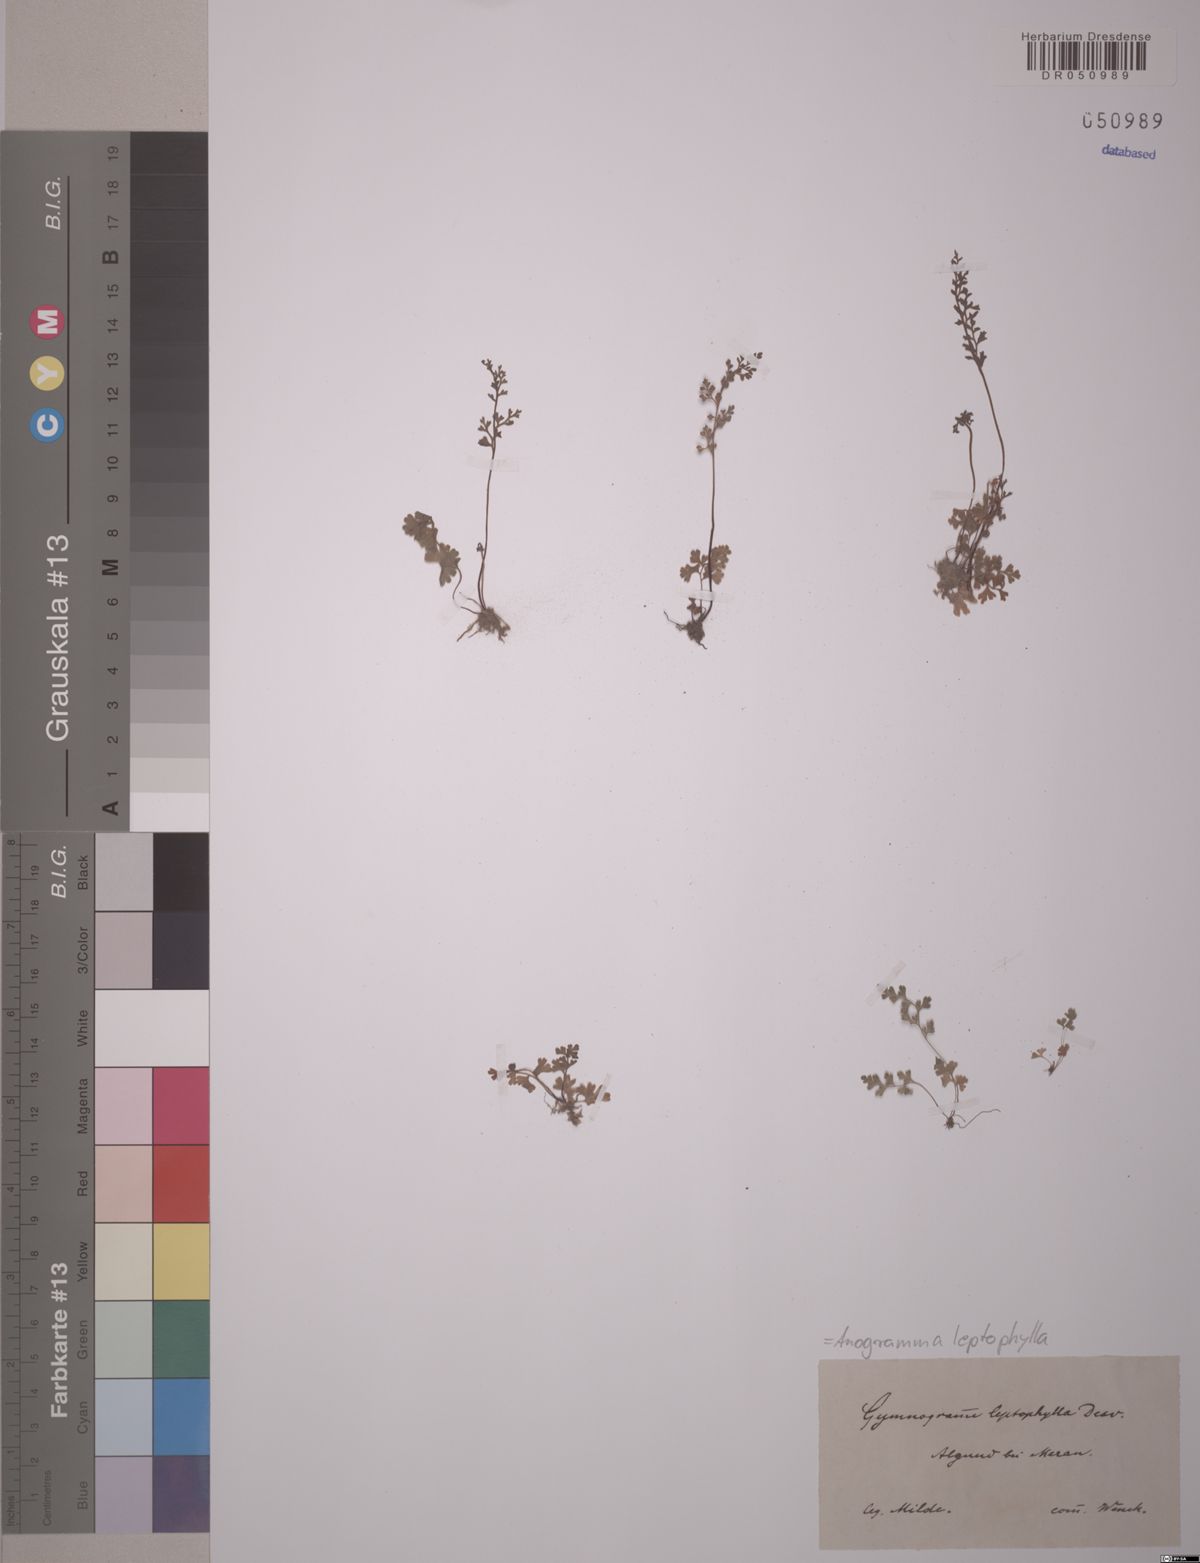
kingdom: Plantae
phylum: Tracheophyta
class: Polypodiopsida
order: Polypodiales
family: Pteridaceae
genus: Anogramma
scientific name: Anogramma leptophylla
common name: Jersey fern
